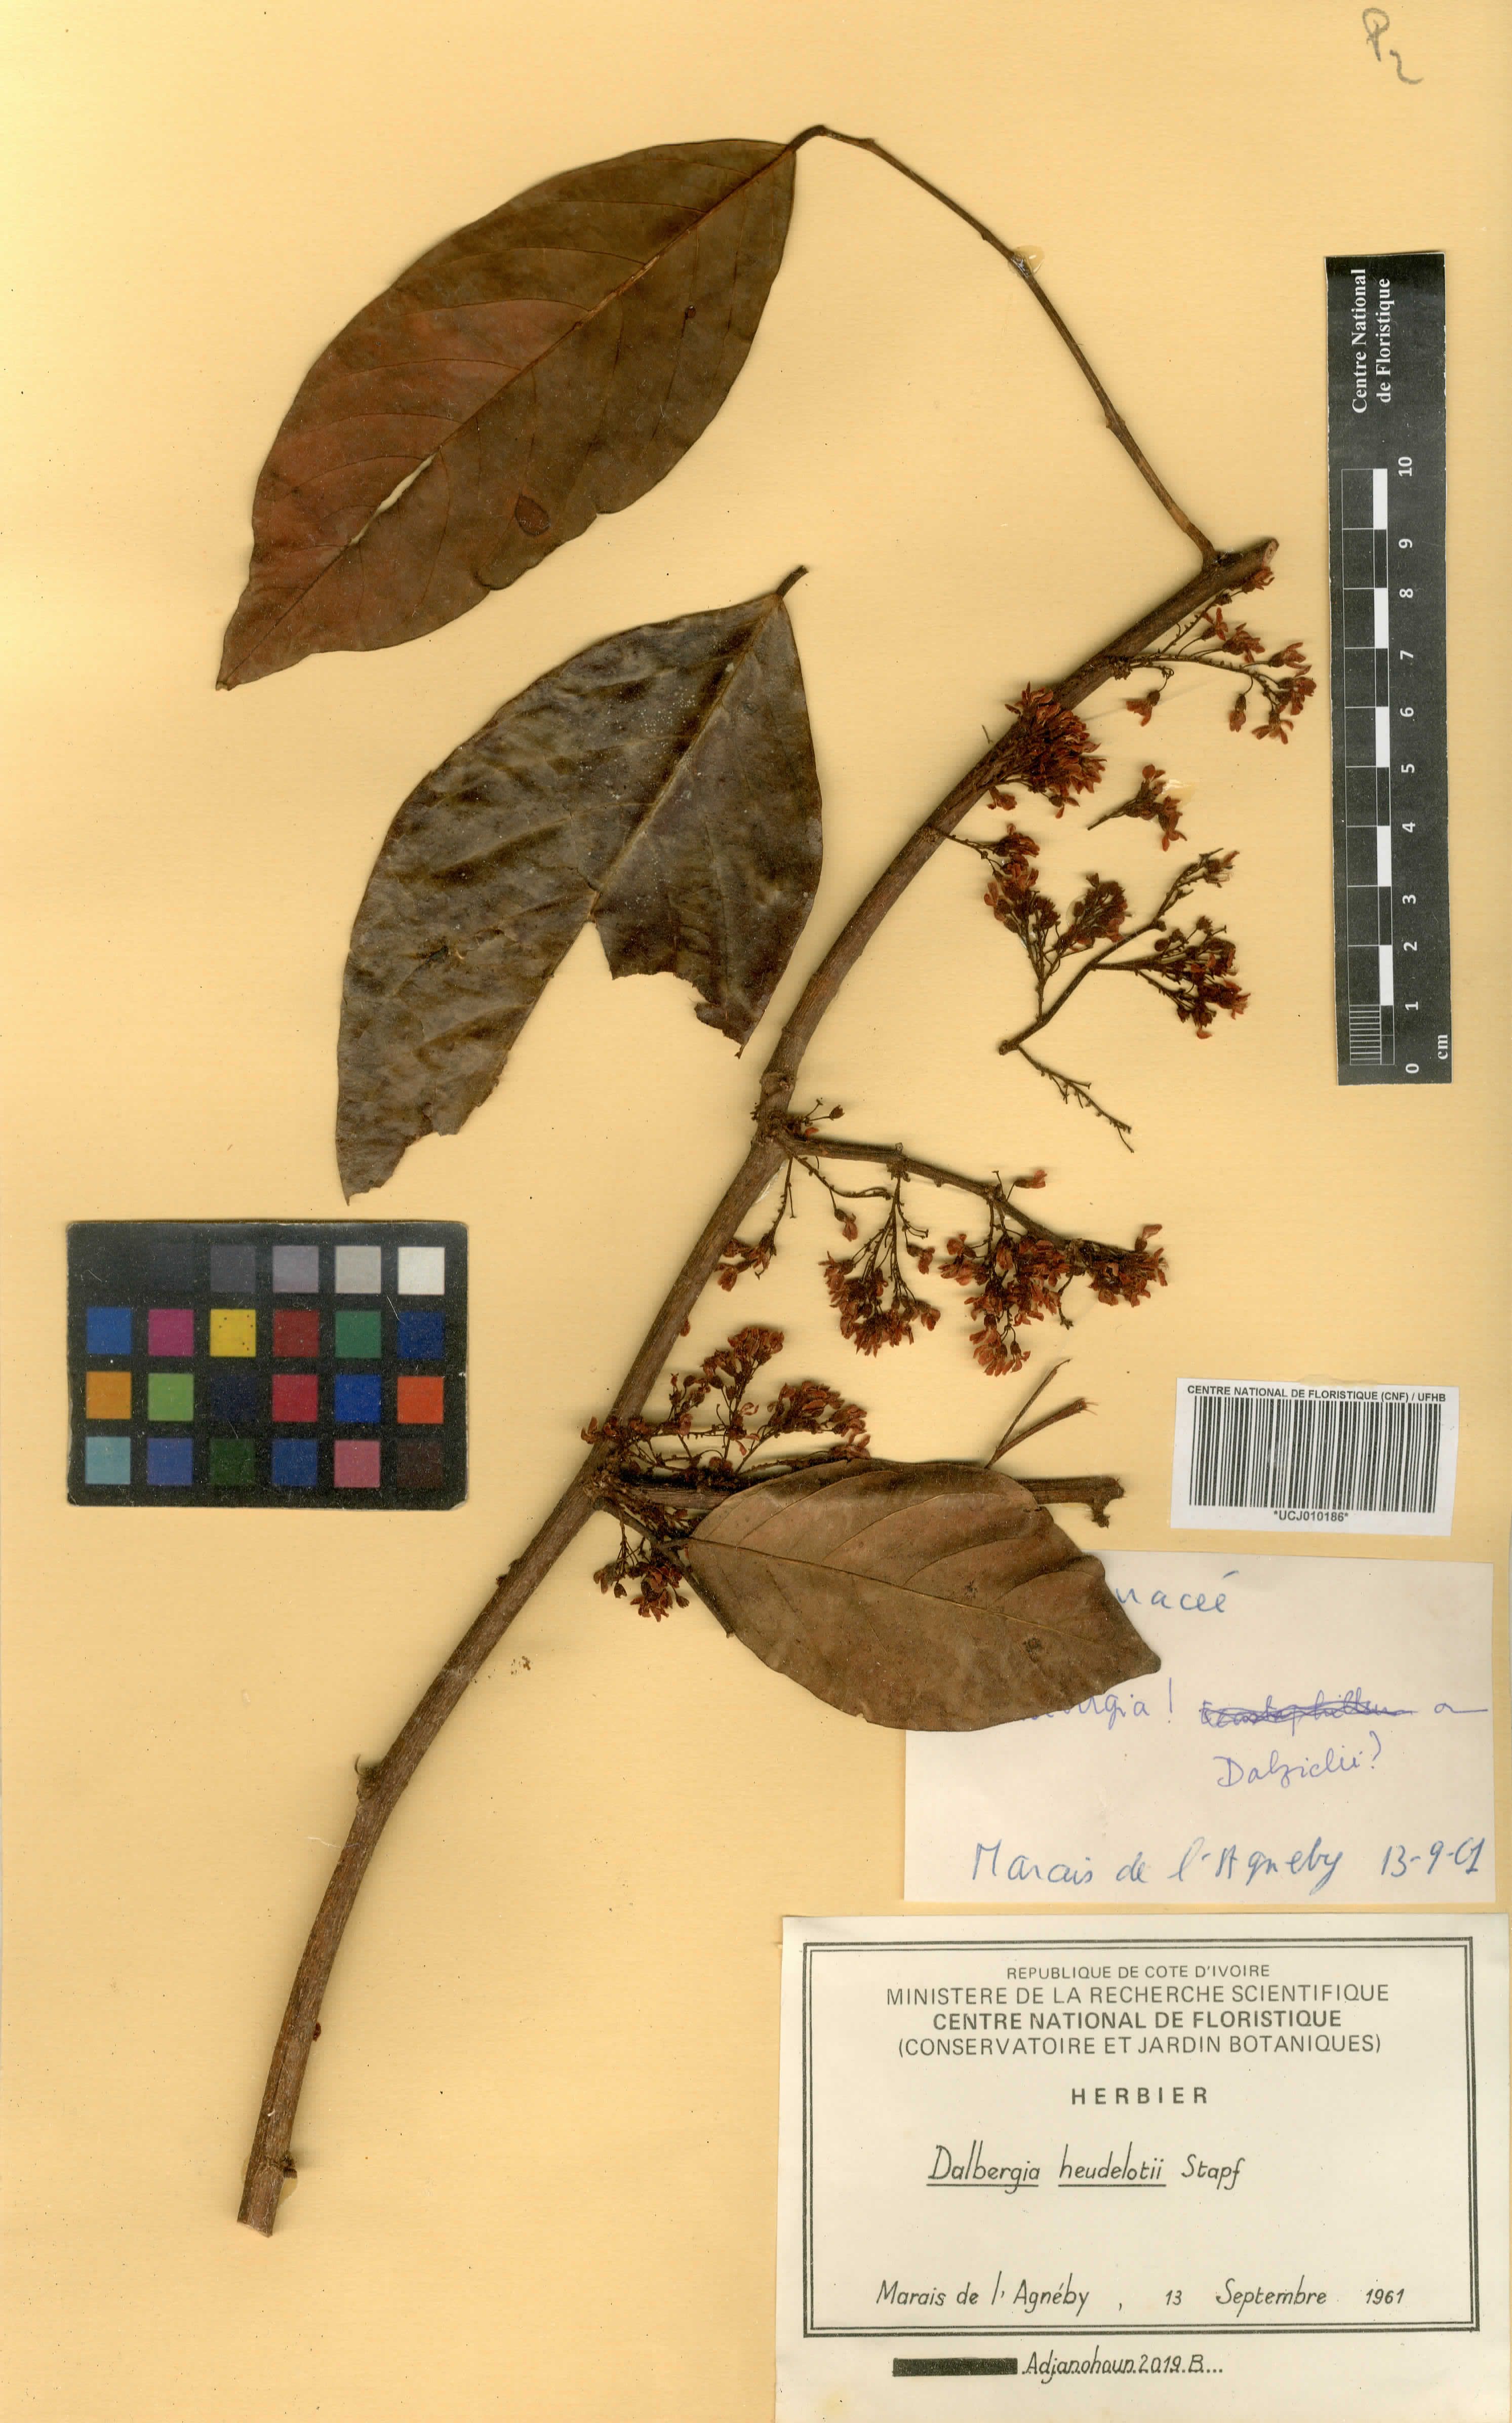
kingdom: Plantae
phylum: Tracheophyta
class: Magnoliopsida
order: Fabales
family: Fabaceae
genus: Dalbergia
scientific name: Dalbergia heudelotii
